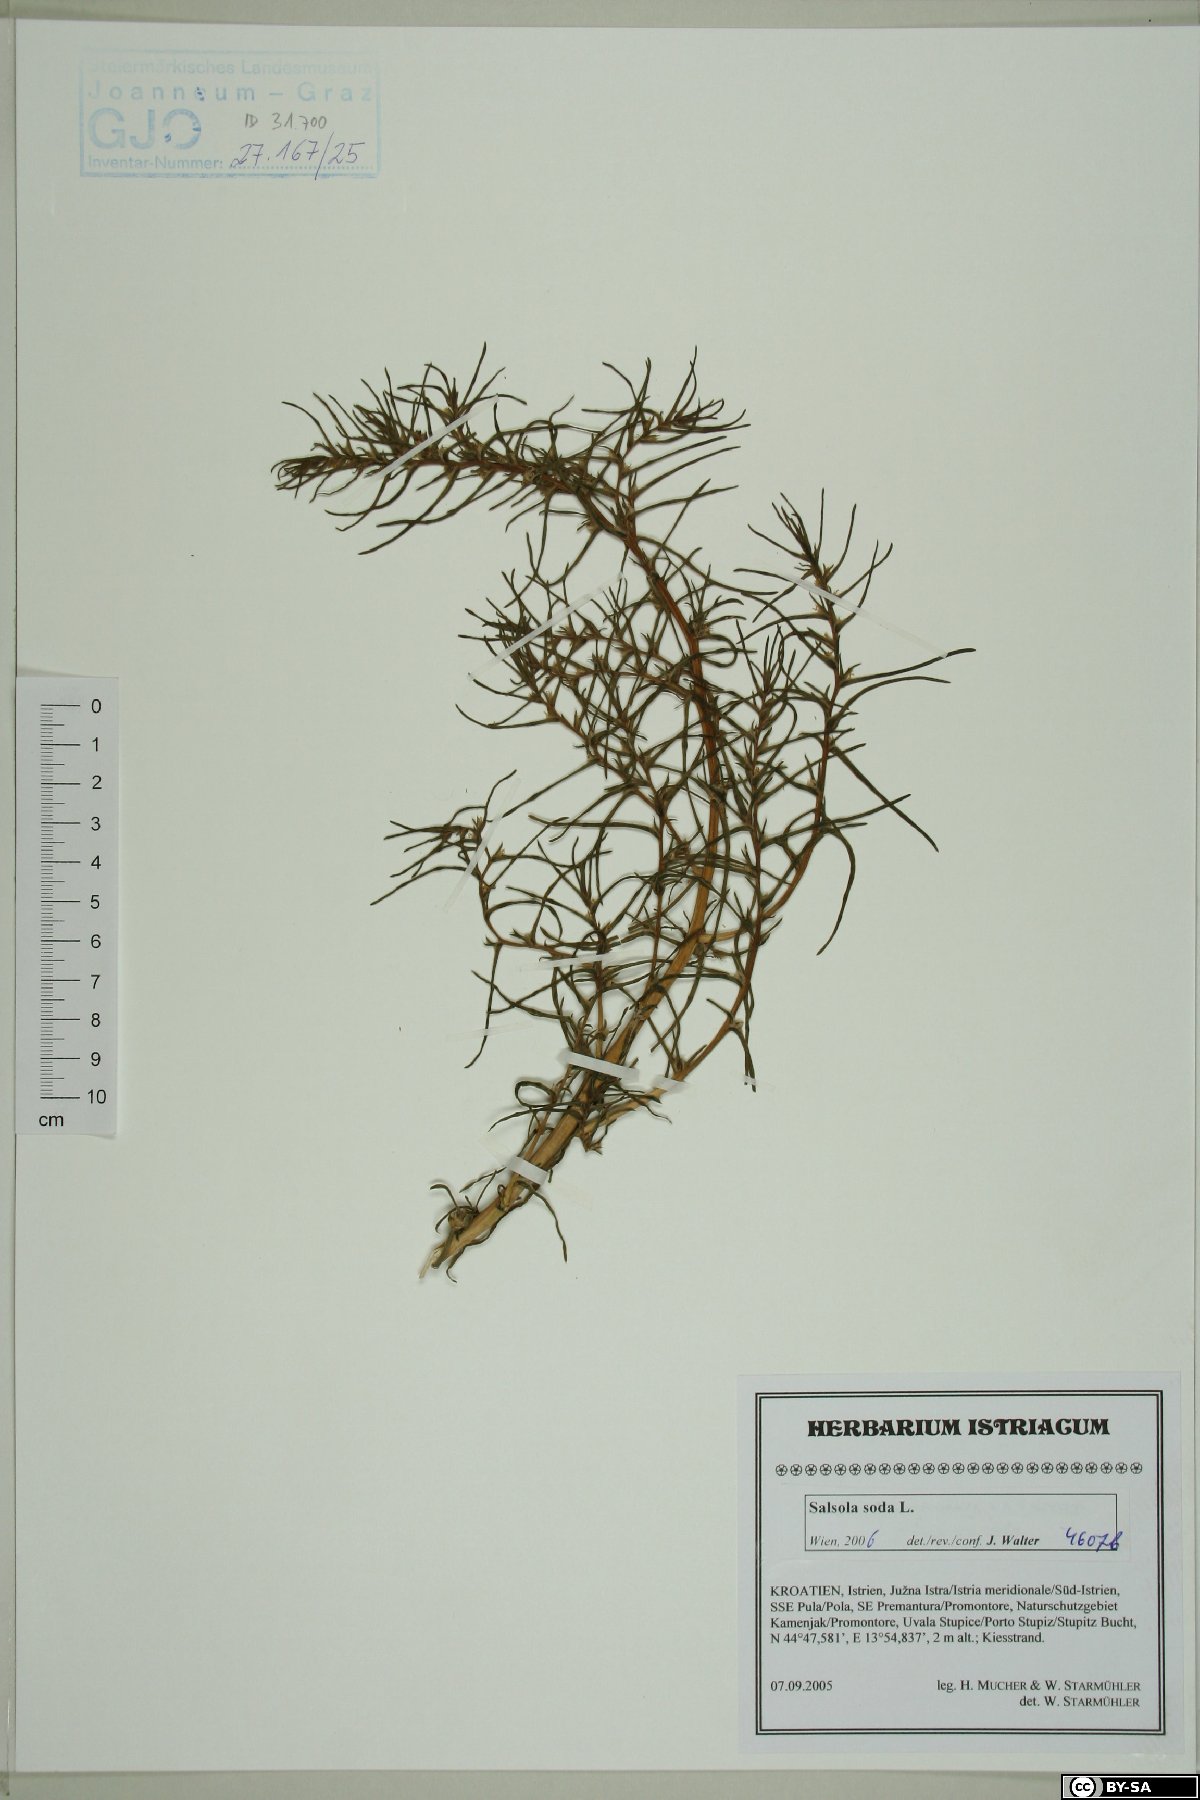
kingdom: Plantae
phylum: Tracheophyta
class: Magnoliopsida
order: Caryophyllales
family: Amaranthaceae
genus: Soda
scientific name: Soda inermis
